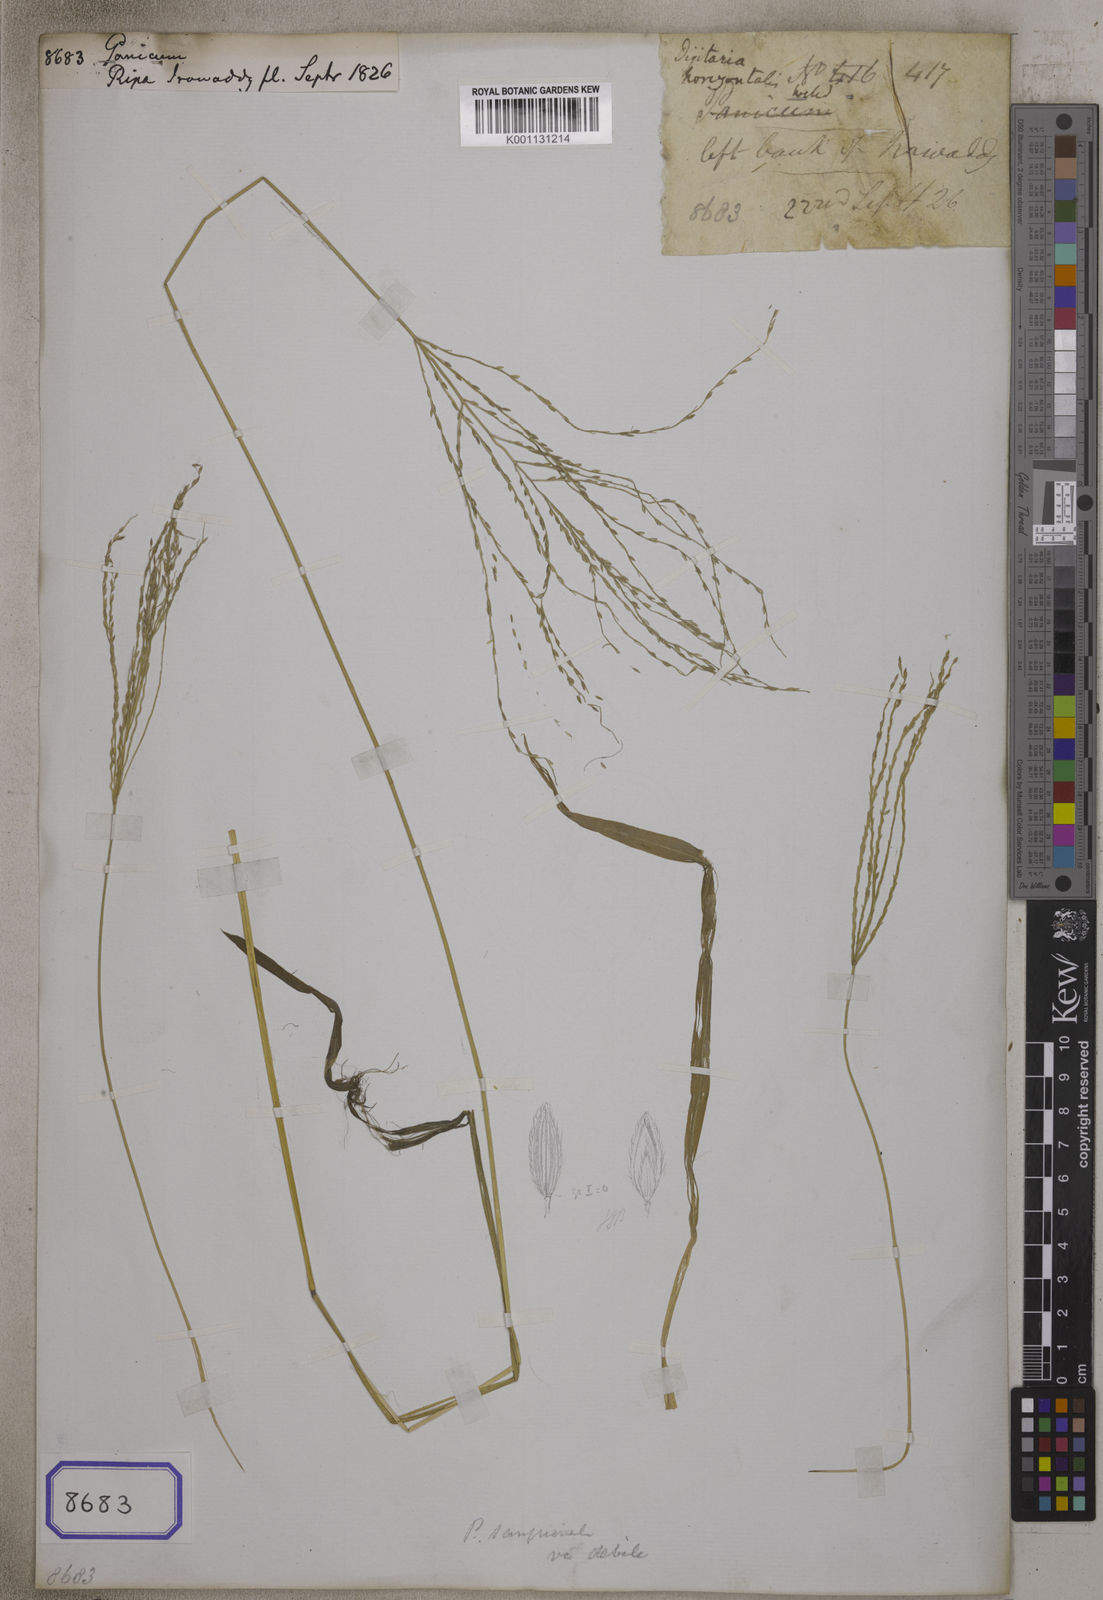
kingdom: Plantae
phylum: Tracheophyta
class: Liliopsida
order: Poales
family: Poaceae
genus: Panicum
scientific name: Panicum
